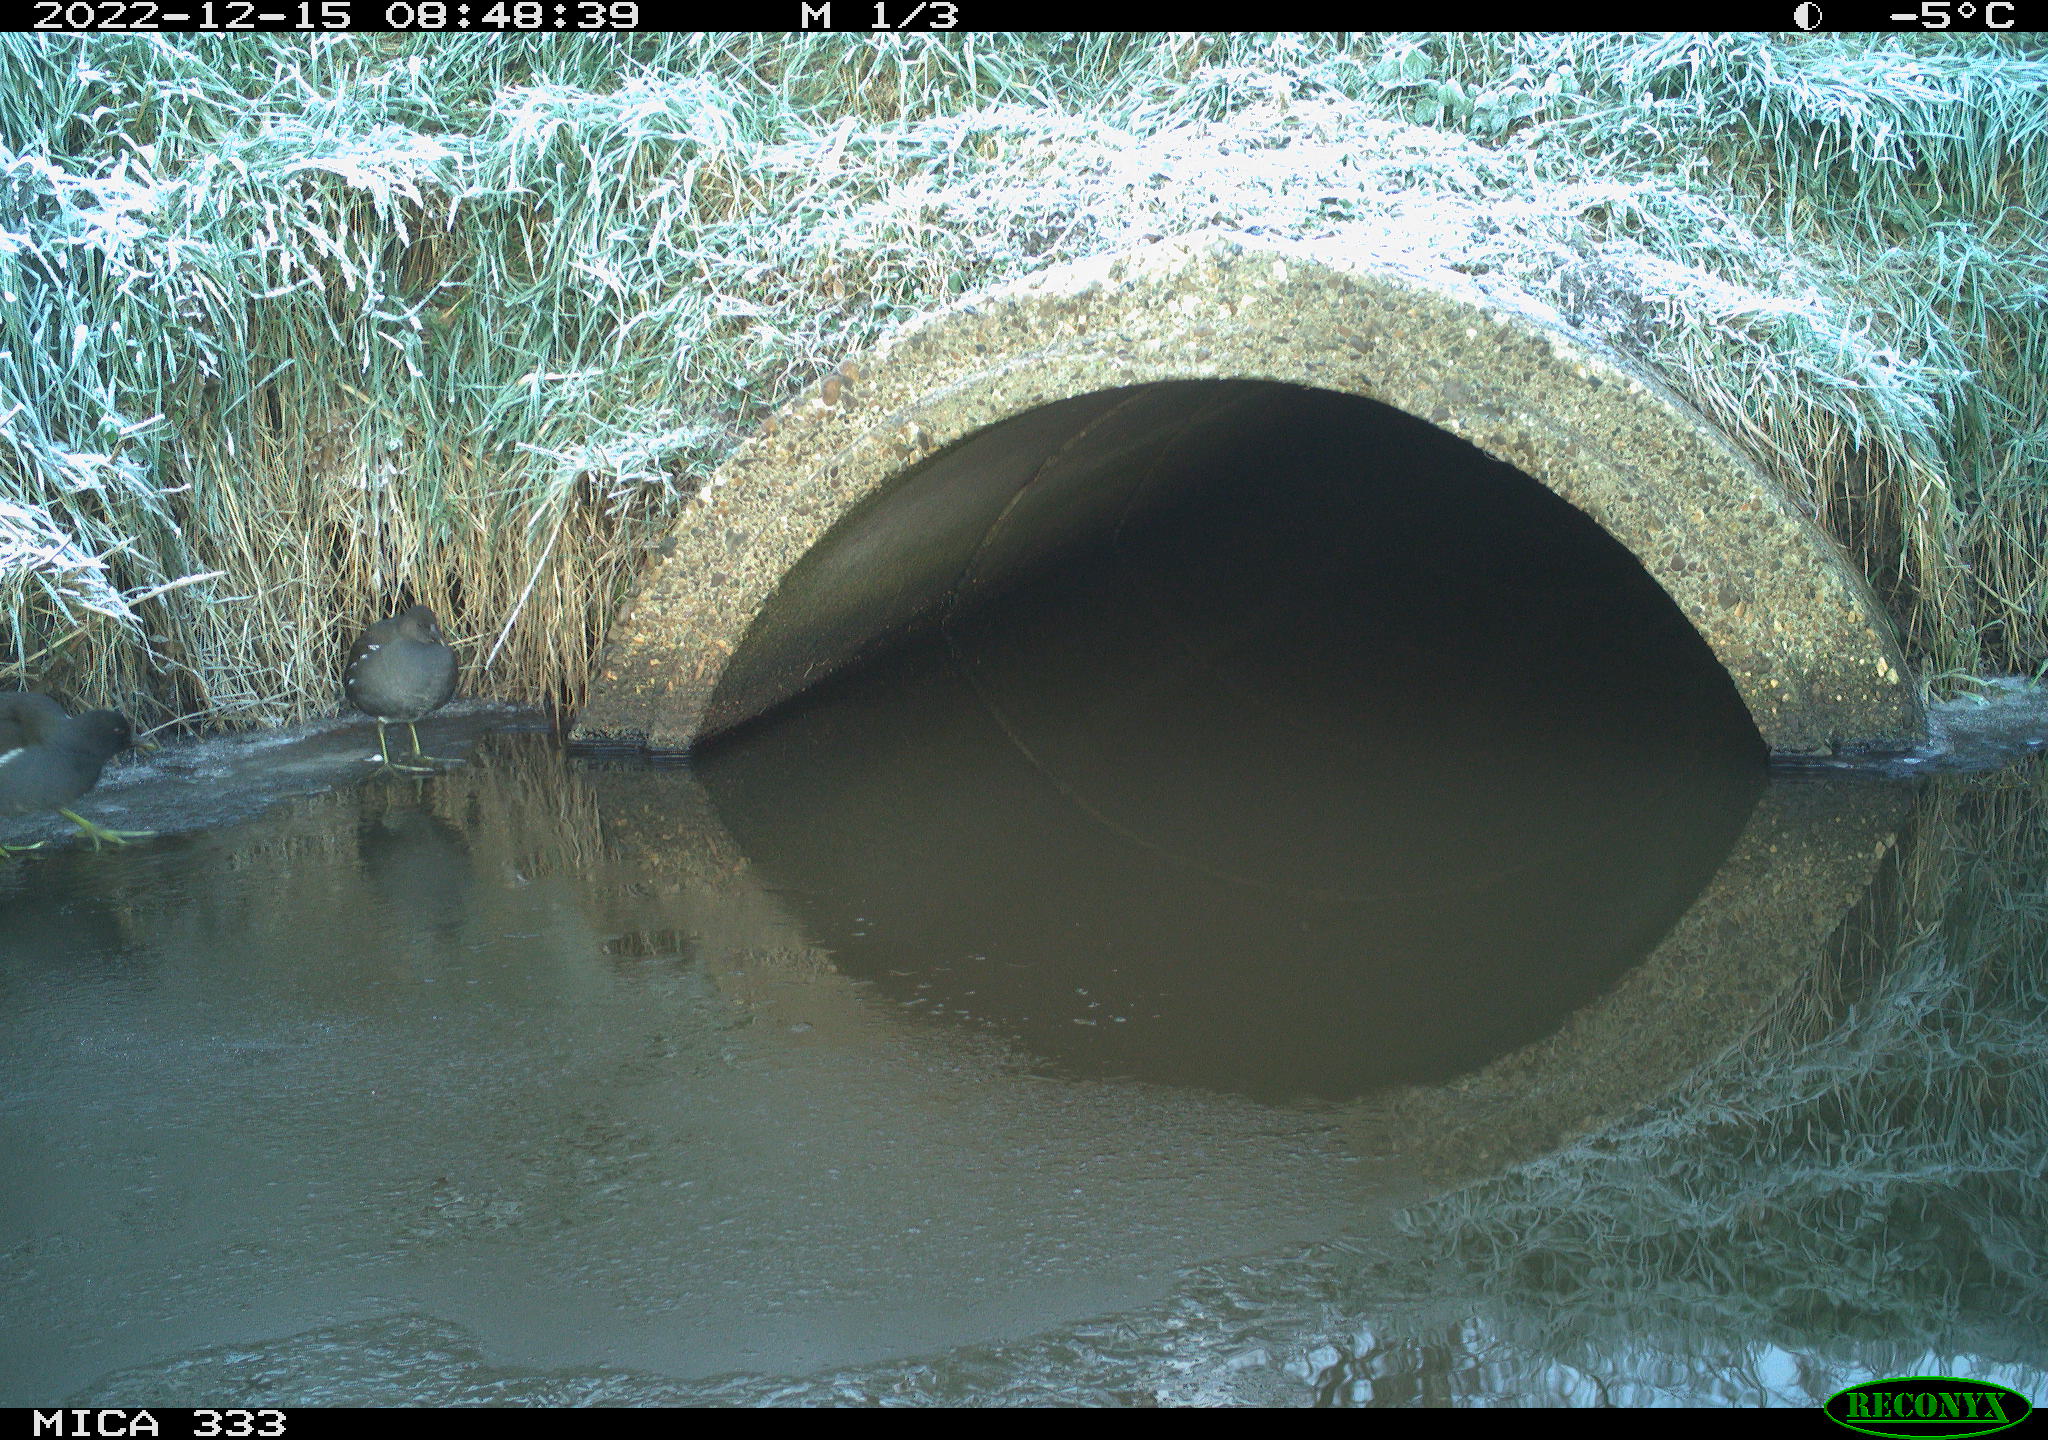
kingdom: Animalia
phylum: Chordata
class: Aves
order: Gruiformes
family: Rallidae
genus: Gallinula
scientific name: Gallinula chloropus
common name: Common moorhen
